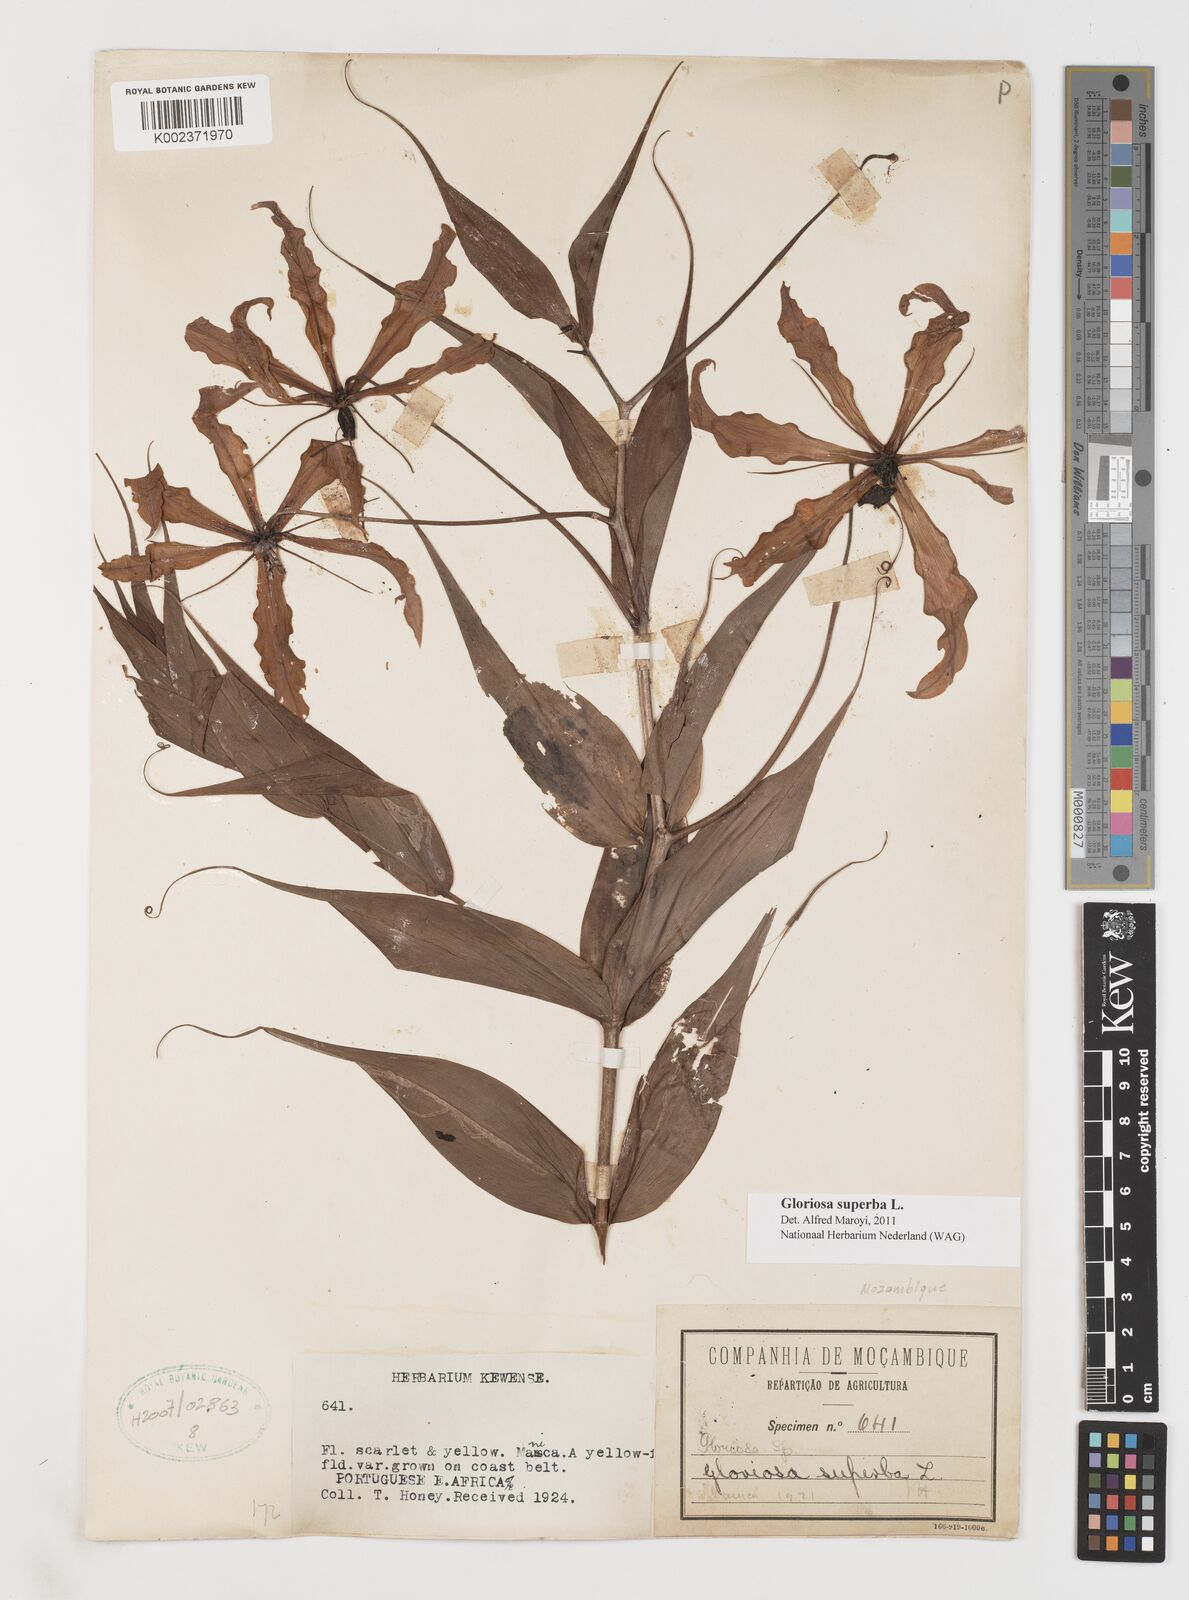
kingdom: Plantae
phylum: Tracheophyta
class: Liliopsida
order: Liliales
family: Colchicaceae
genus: Gloriosa
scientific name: Gloriosa superba
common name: Flame lily
